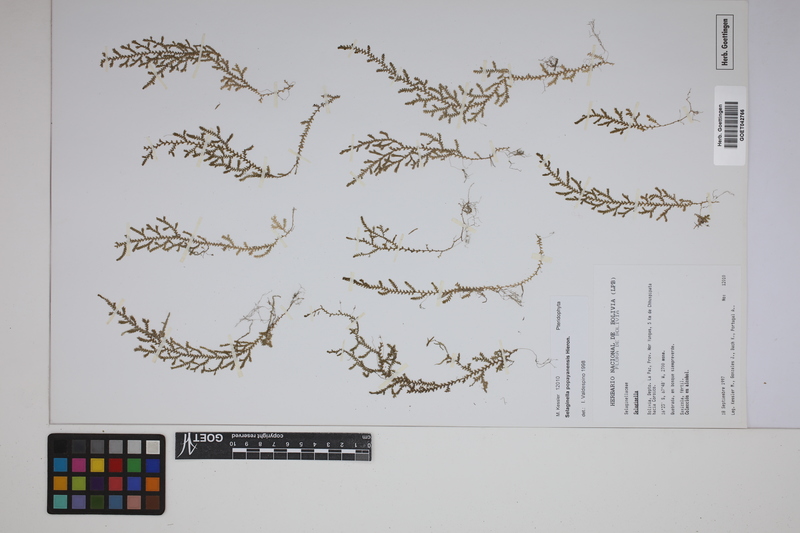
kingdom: Plantae
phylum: Tracheophyta
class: Lycopodiopsida
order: Selaginellales
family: Selaginellaceae
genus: Selaginella
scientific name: Selaginella popayanensis
